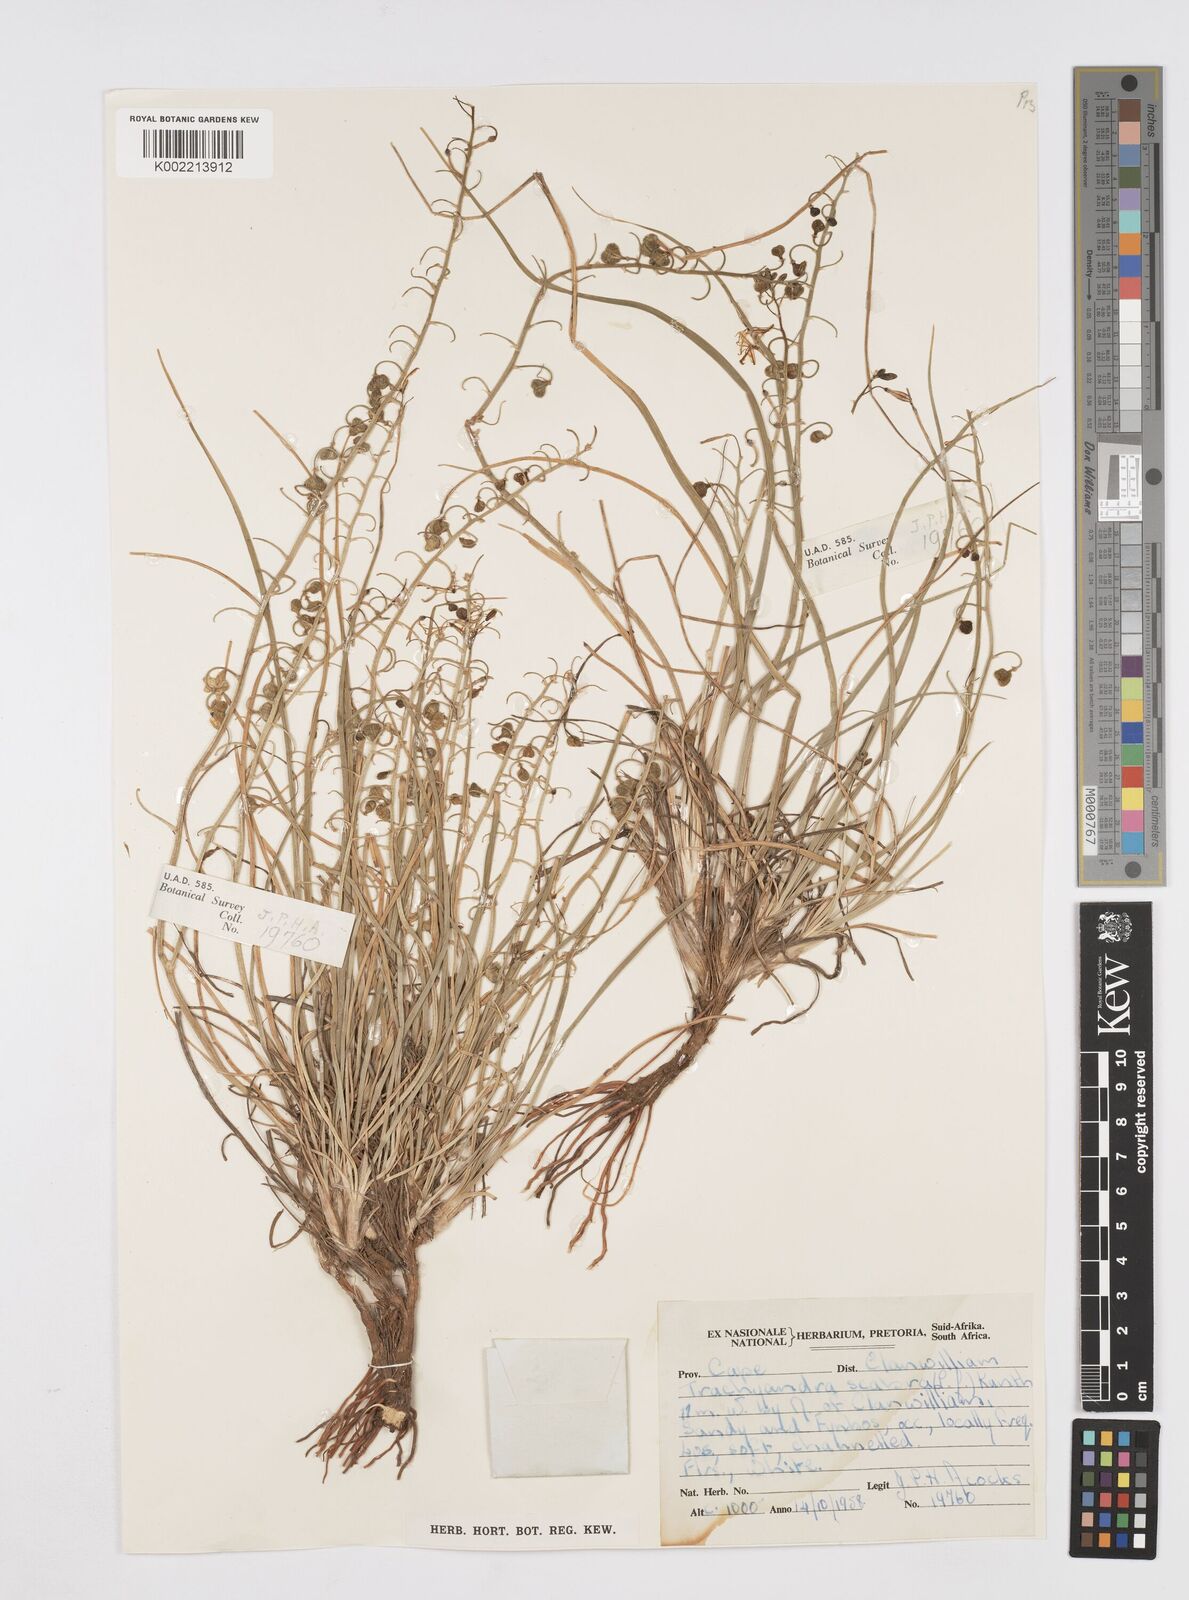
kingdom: Plantae
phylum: Tracheophyta
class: Liliopsida
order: Asparagales
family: Asphodelaceae
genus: Trachyandra
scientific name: Trachyandra scabra
